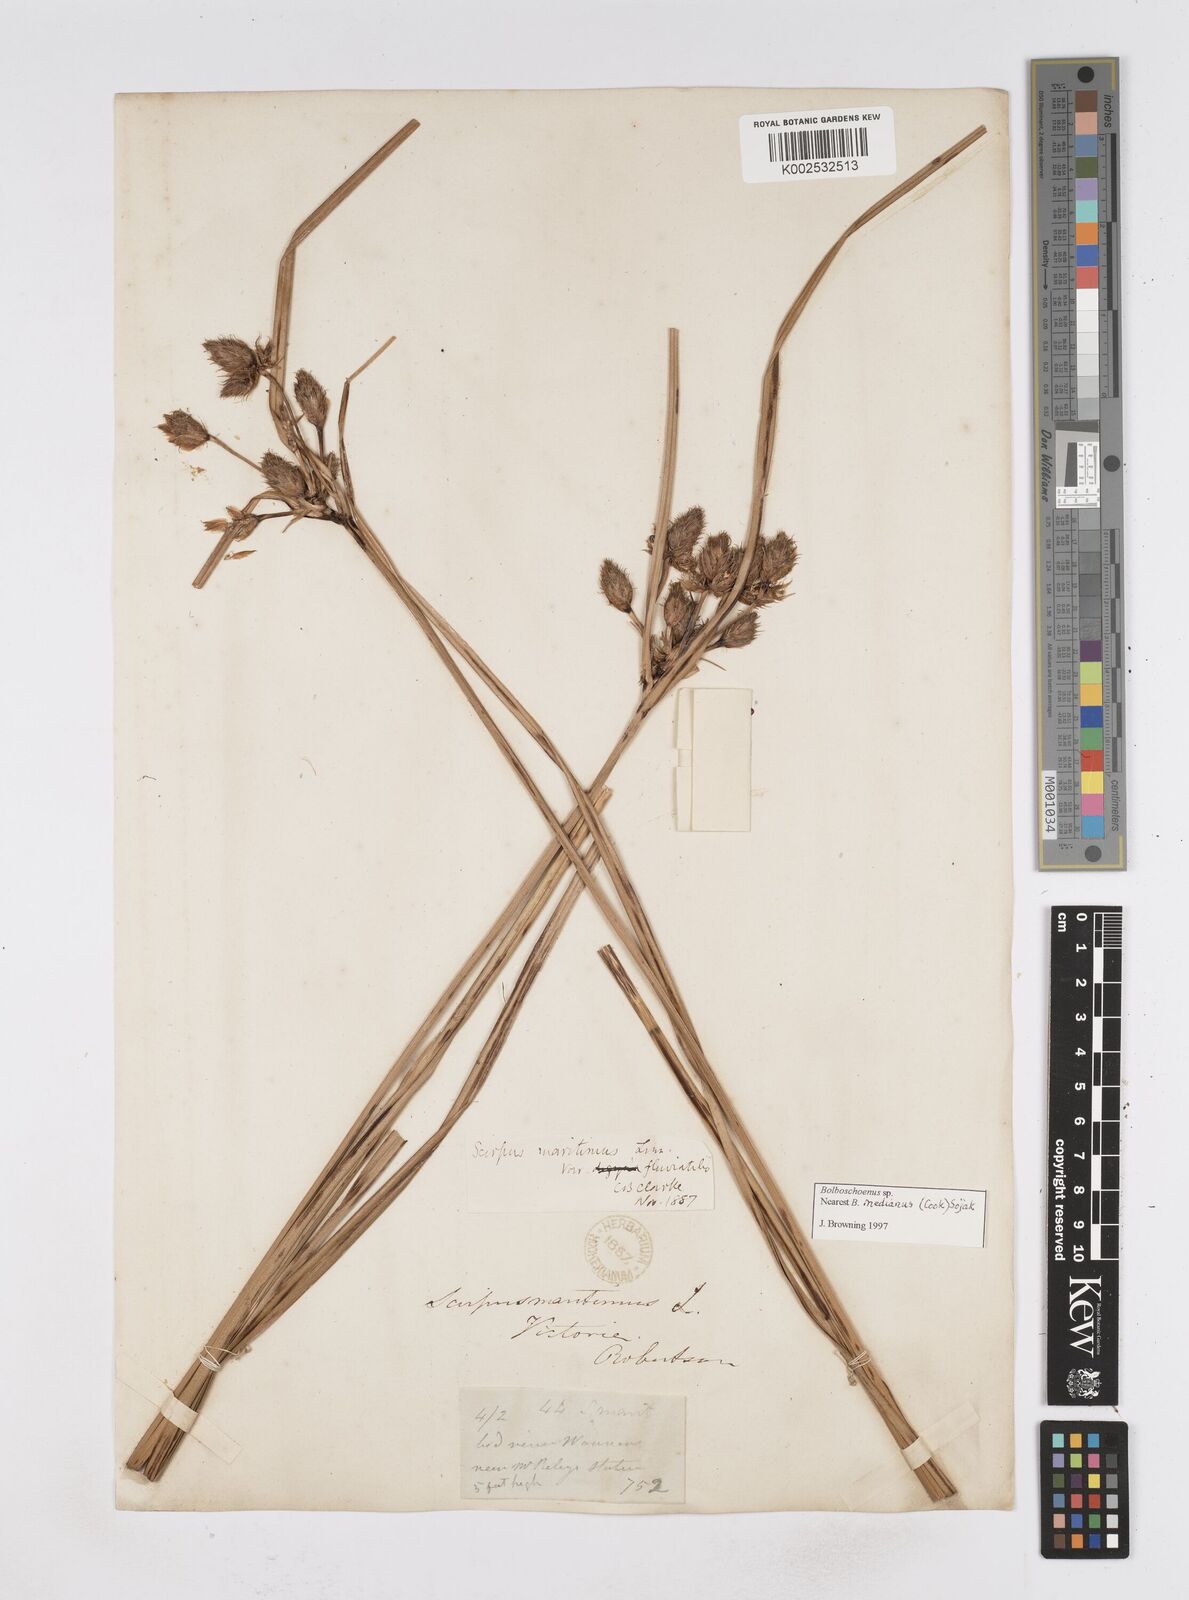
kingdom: Plantae
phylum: Tracheophyta
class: Liliopsida
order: Poales
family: Cyperaceae
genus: Bolboschoenus
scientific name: Bolboschoenus maritimus
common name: Sea club-rush
